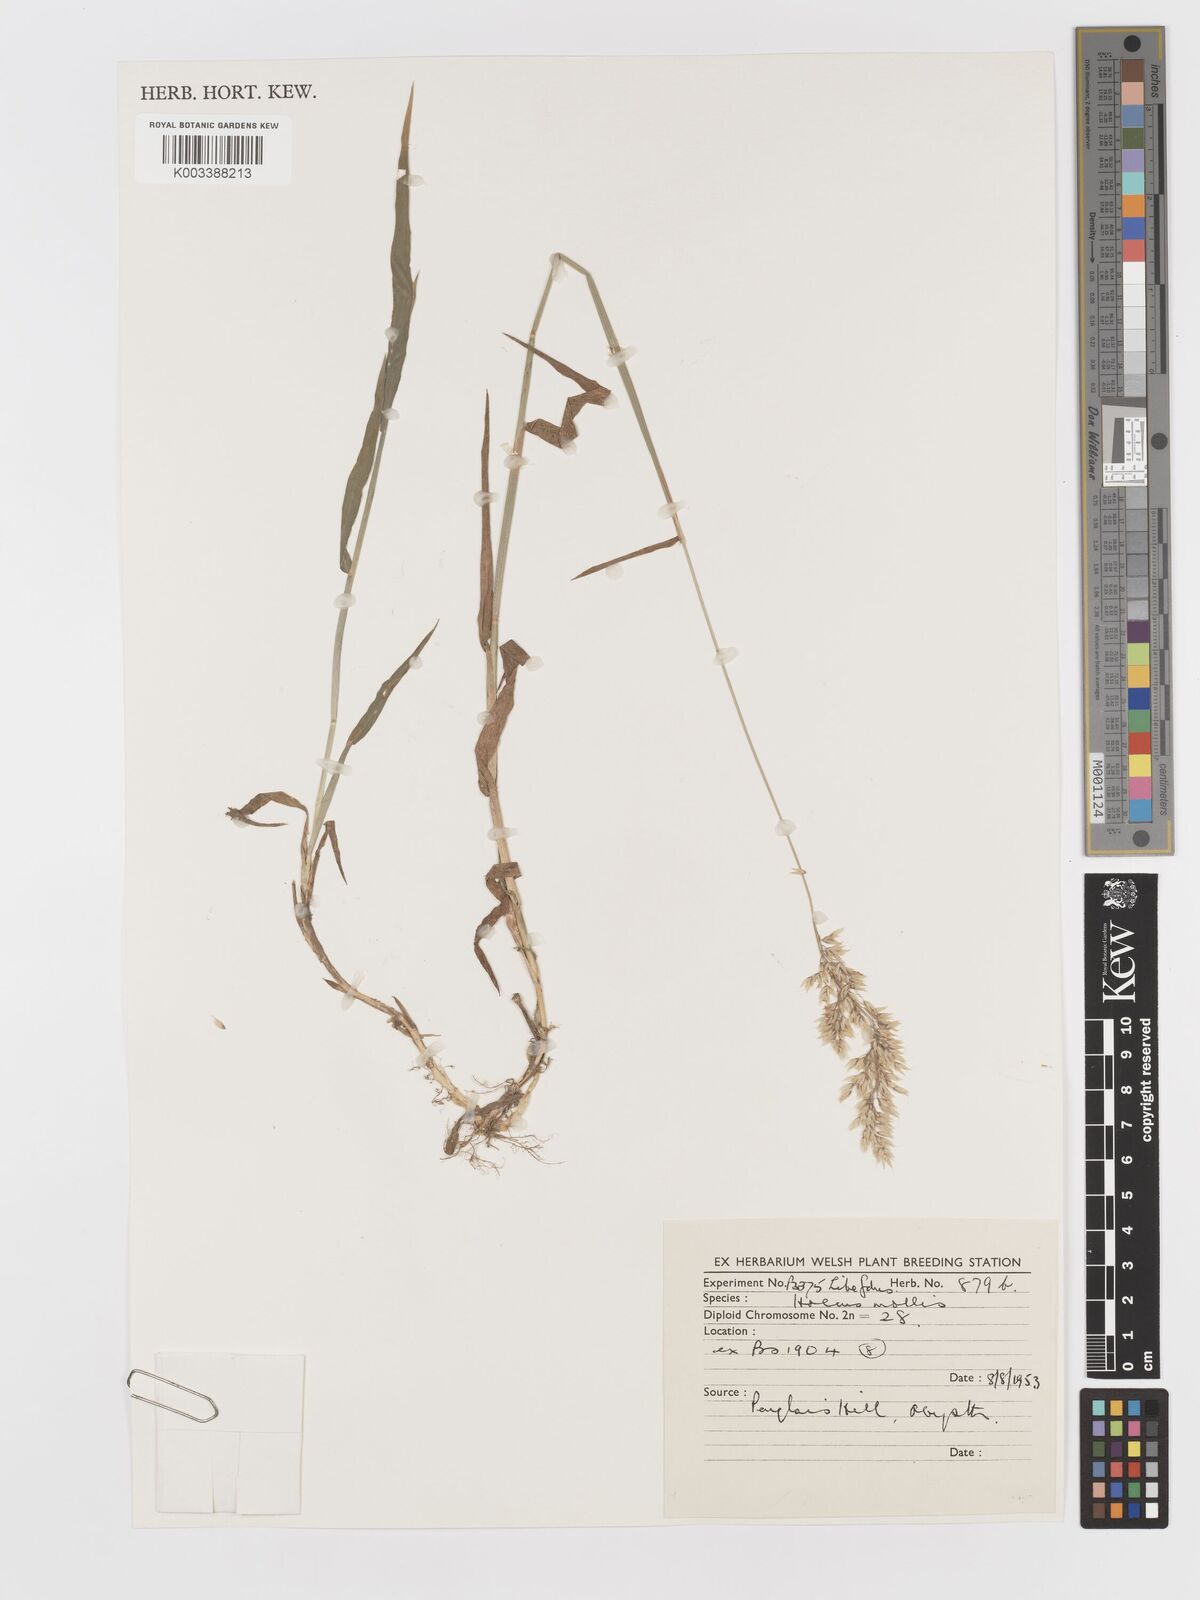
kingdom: Plantae
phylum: Tracheophyta
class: Liliopsida
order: Poales
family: Poaceae
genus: Holcus
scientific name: Holcus mollis
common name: Creeping velvetgrass
